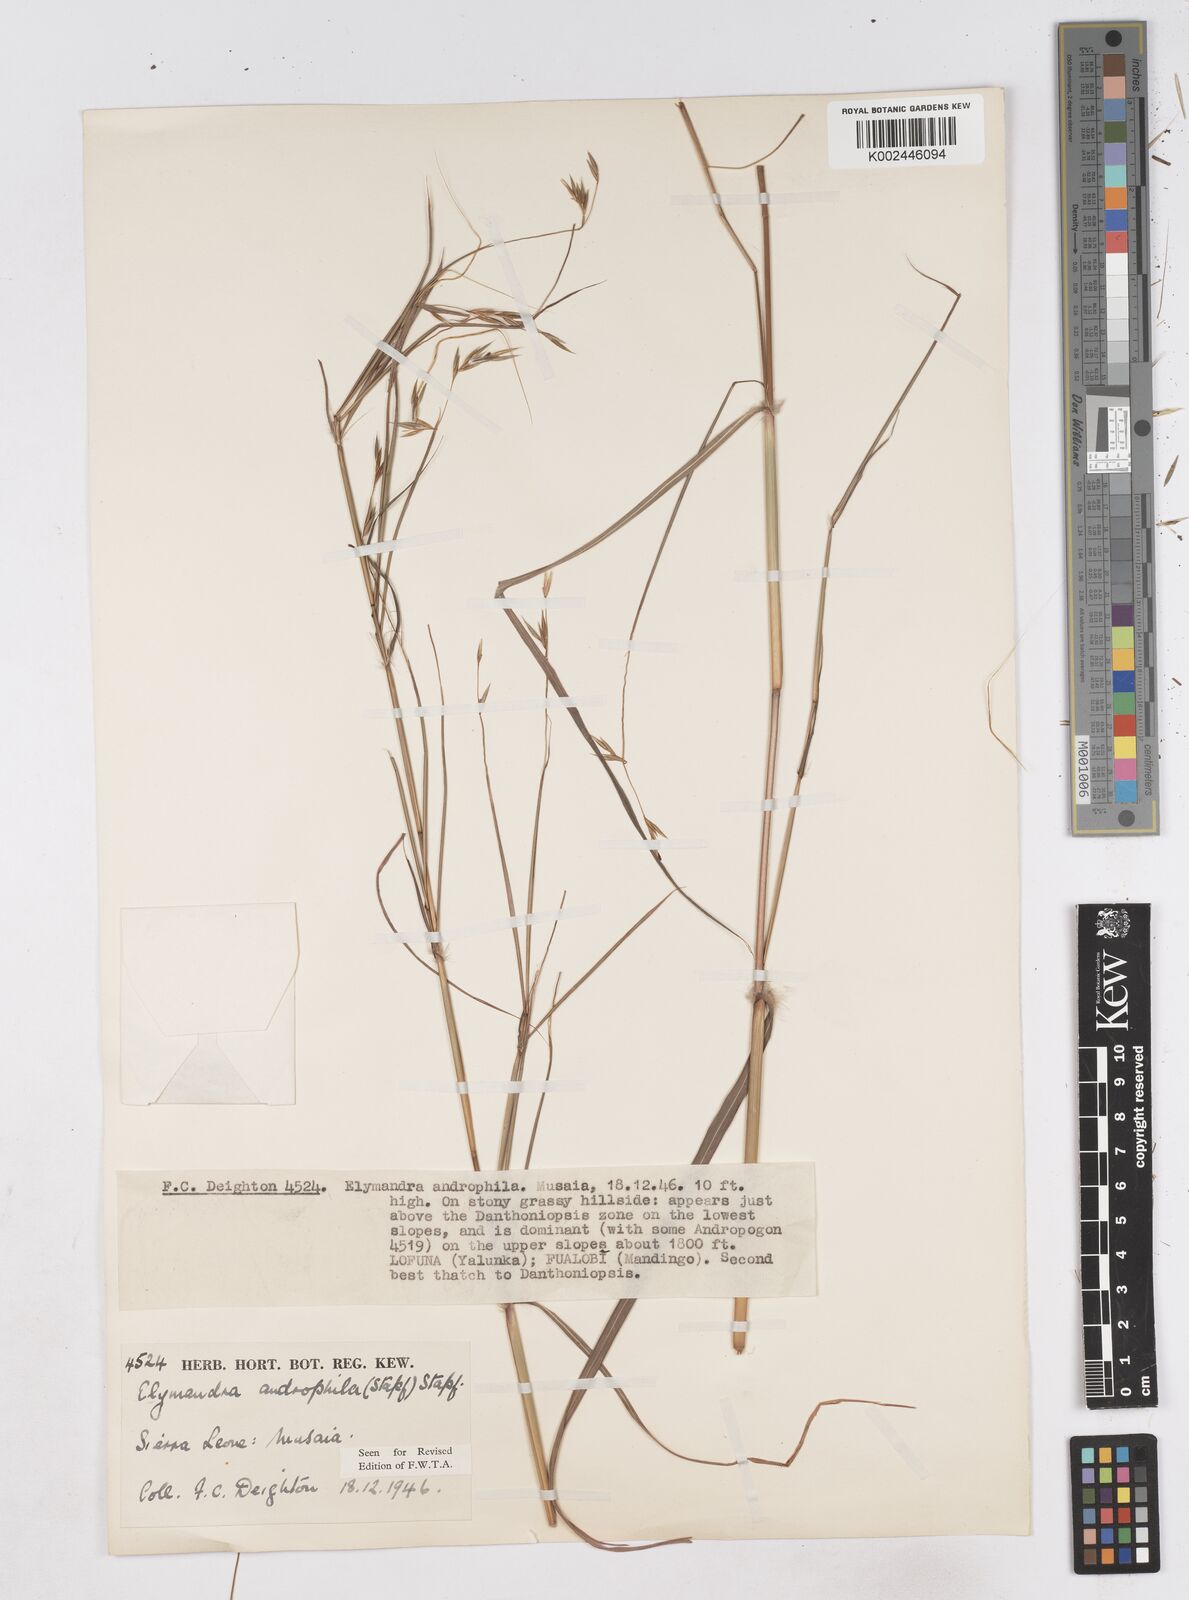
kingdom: Plantae
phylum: Tracheophyta
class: Liliopsida
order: Poales
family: Poaceae
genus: Elymandra
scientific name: Elymandra androphila
